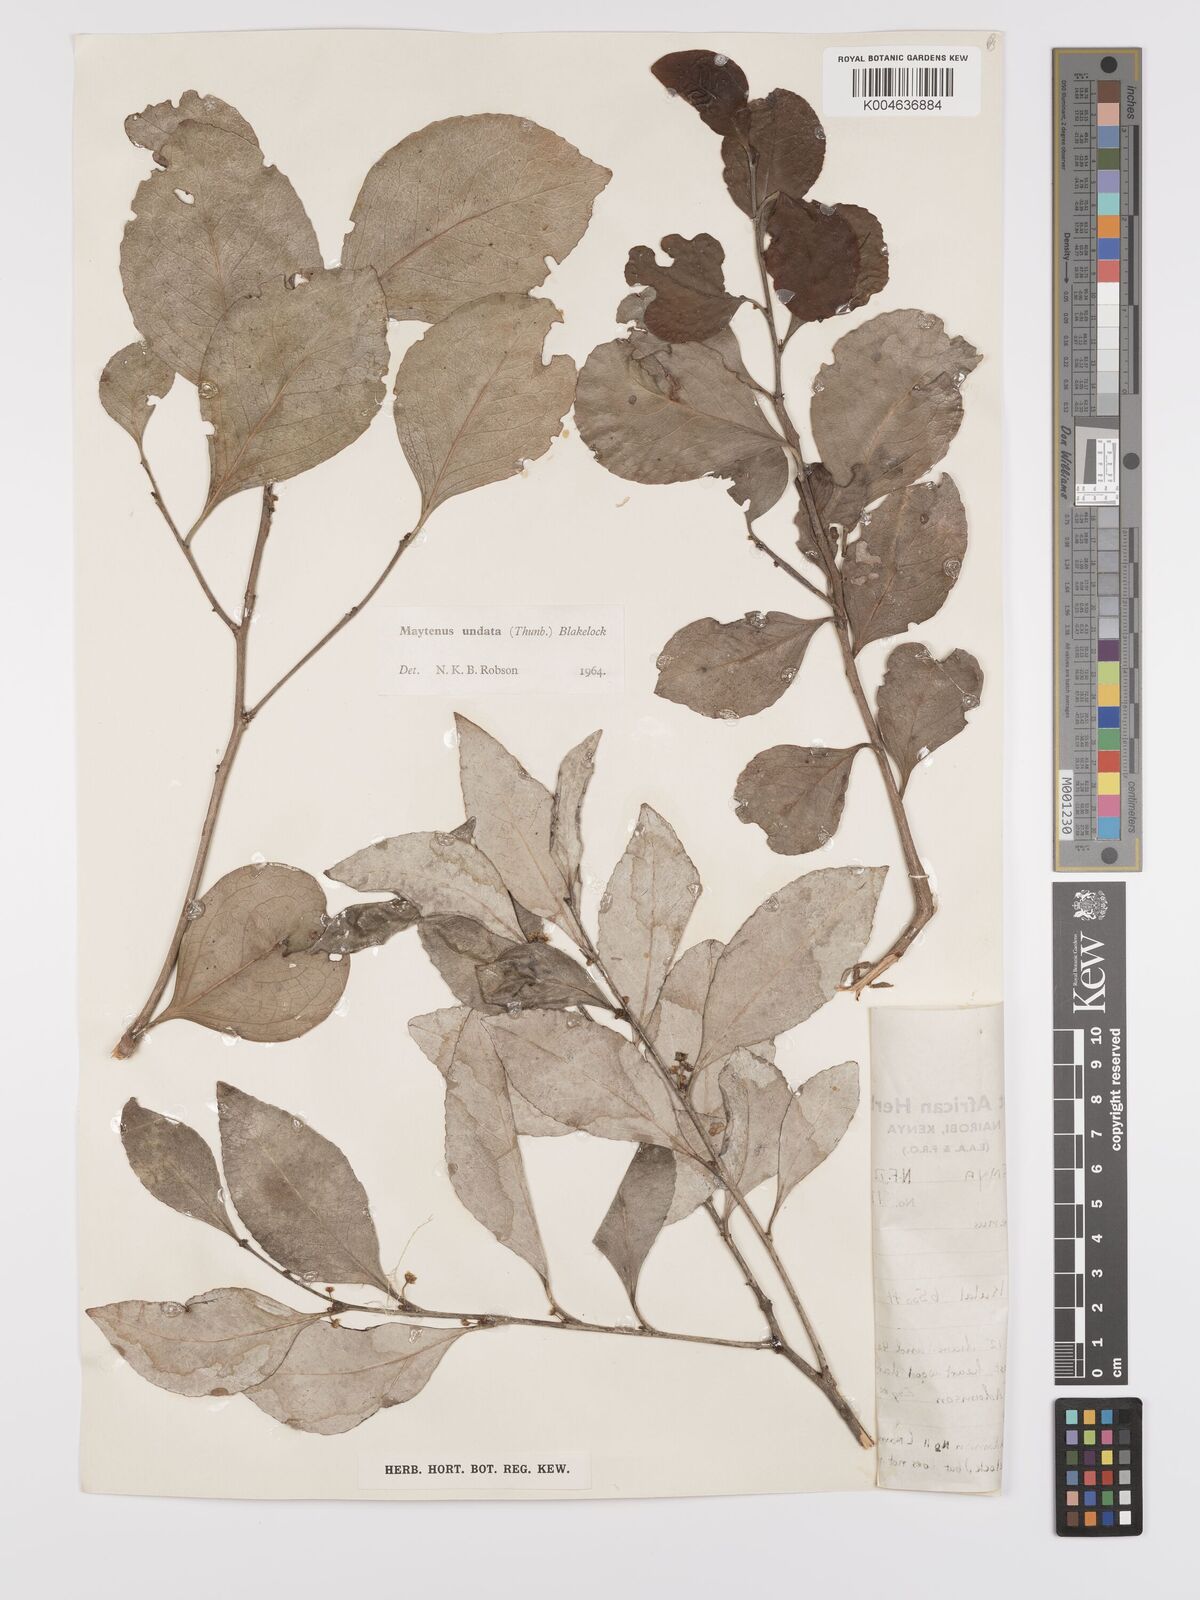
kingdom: Plantae
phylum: Tracheophyta
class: Magnoliopsida
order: Celastrales
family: Celastraceae
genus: Gymnosporia
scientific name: Gymnosporia undata
